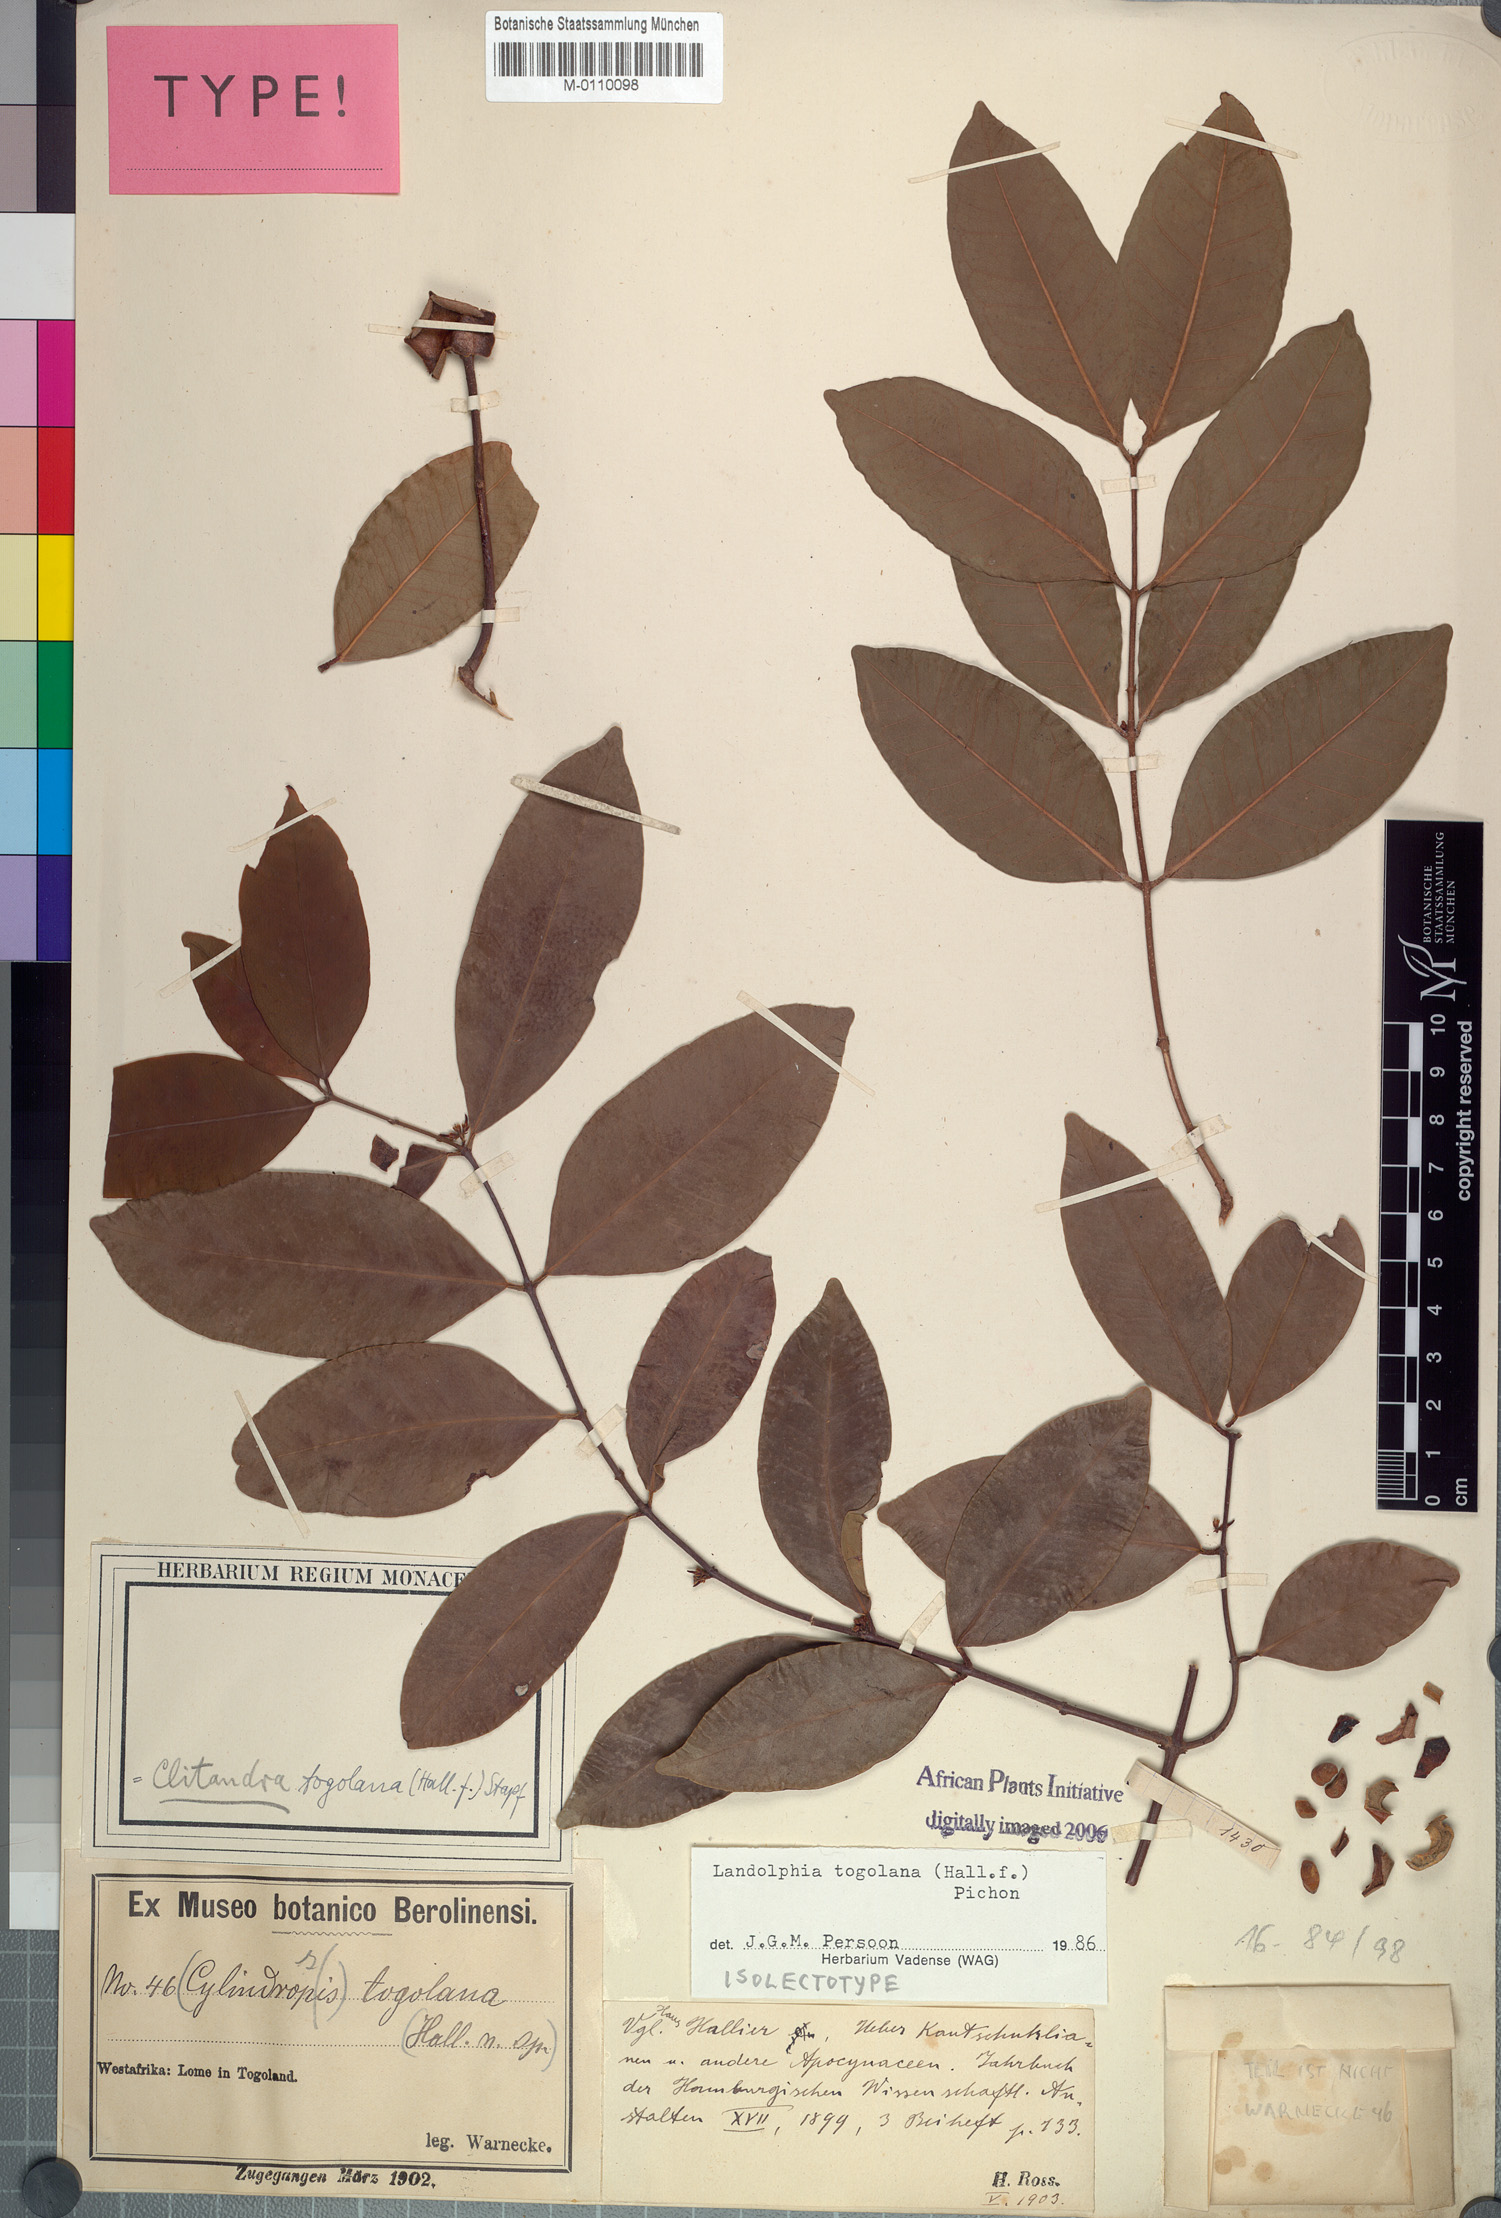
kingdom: Plantae
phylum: Tracheophyta
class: Magnoliopsida
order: Gentianales
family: Apocynaceae
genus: Landolphia
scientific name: Landolphia togolana
